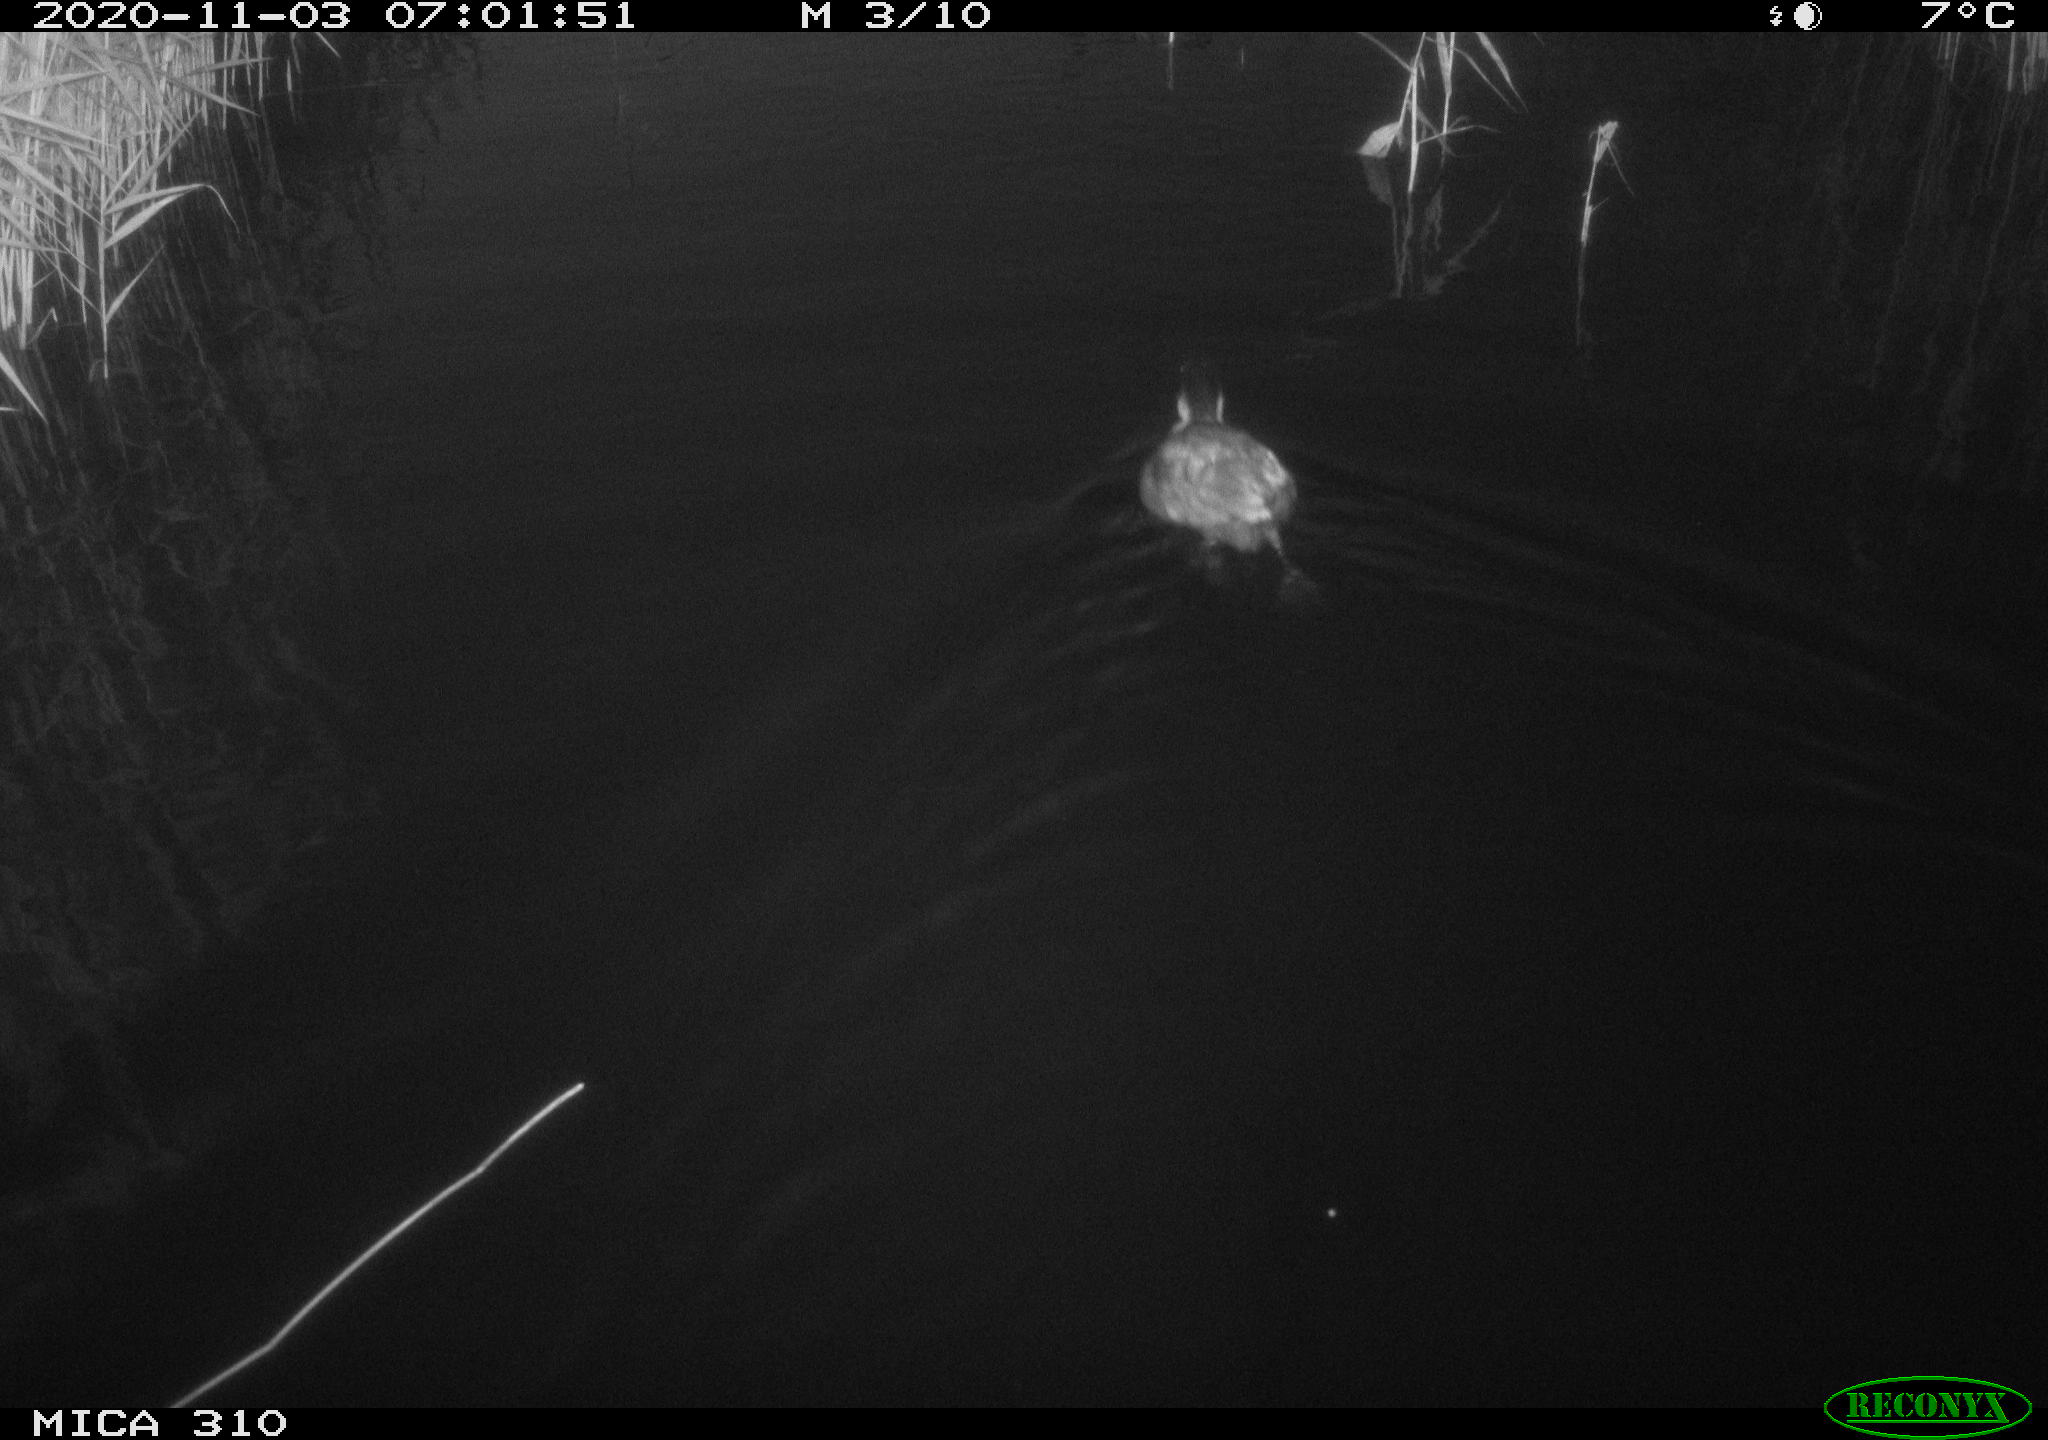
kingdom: Animalia
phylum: Chordata
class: Aves
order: Gruiformes
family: Rallidae
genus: Fulica
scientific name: Fulica atra
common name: Eurasian coot
